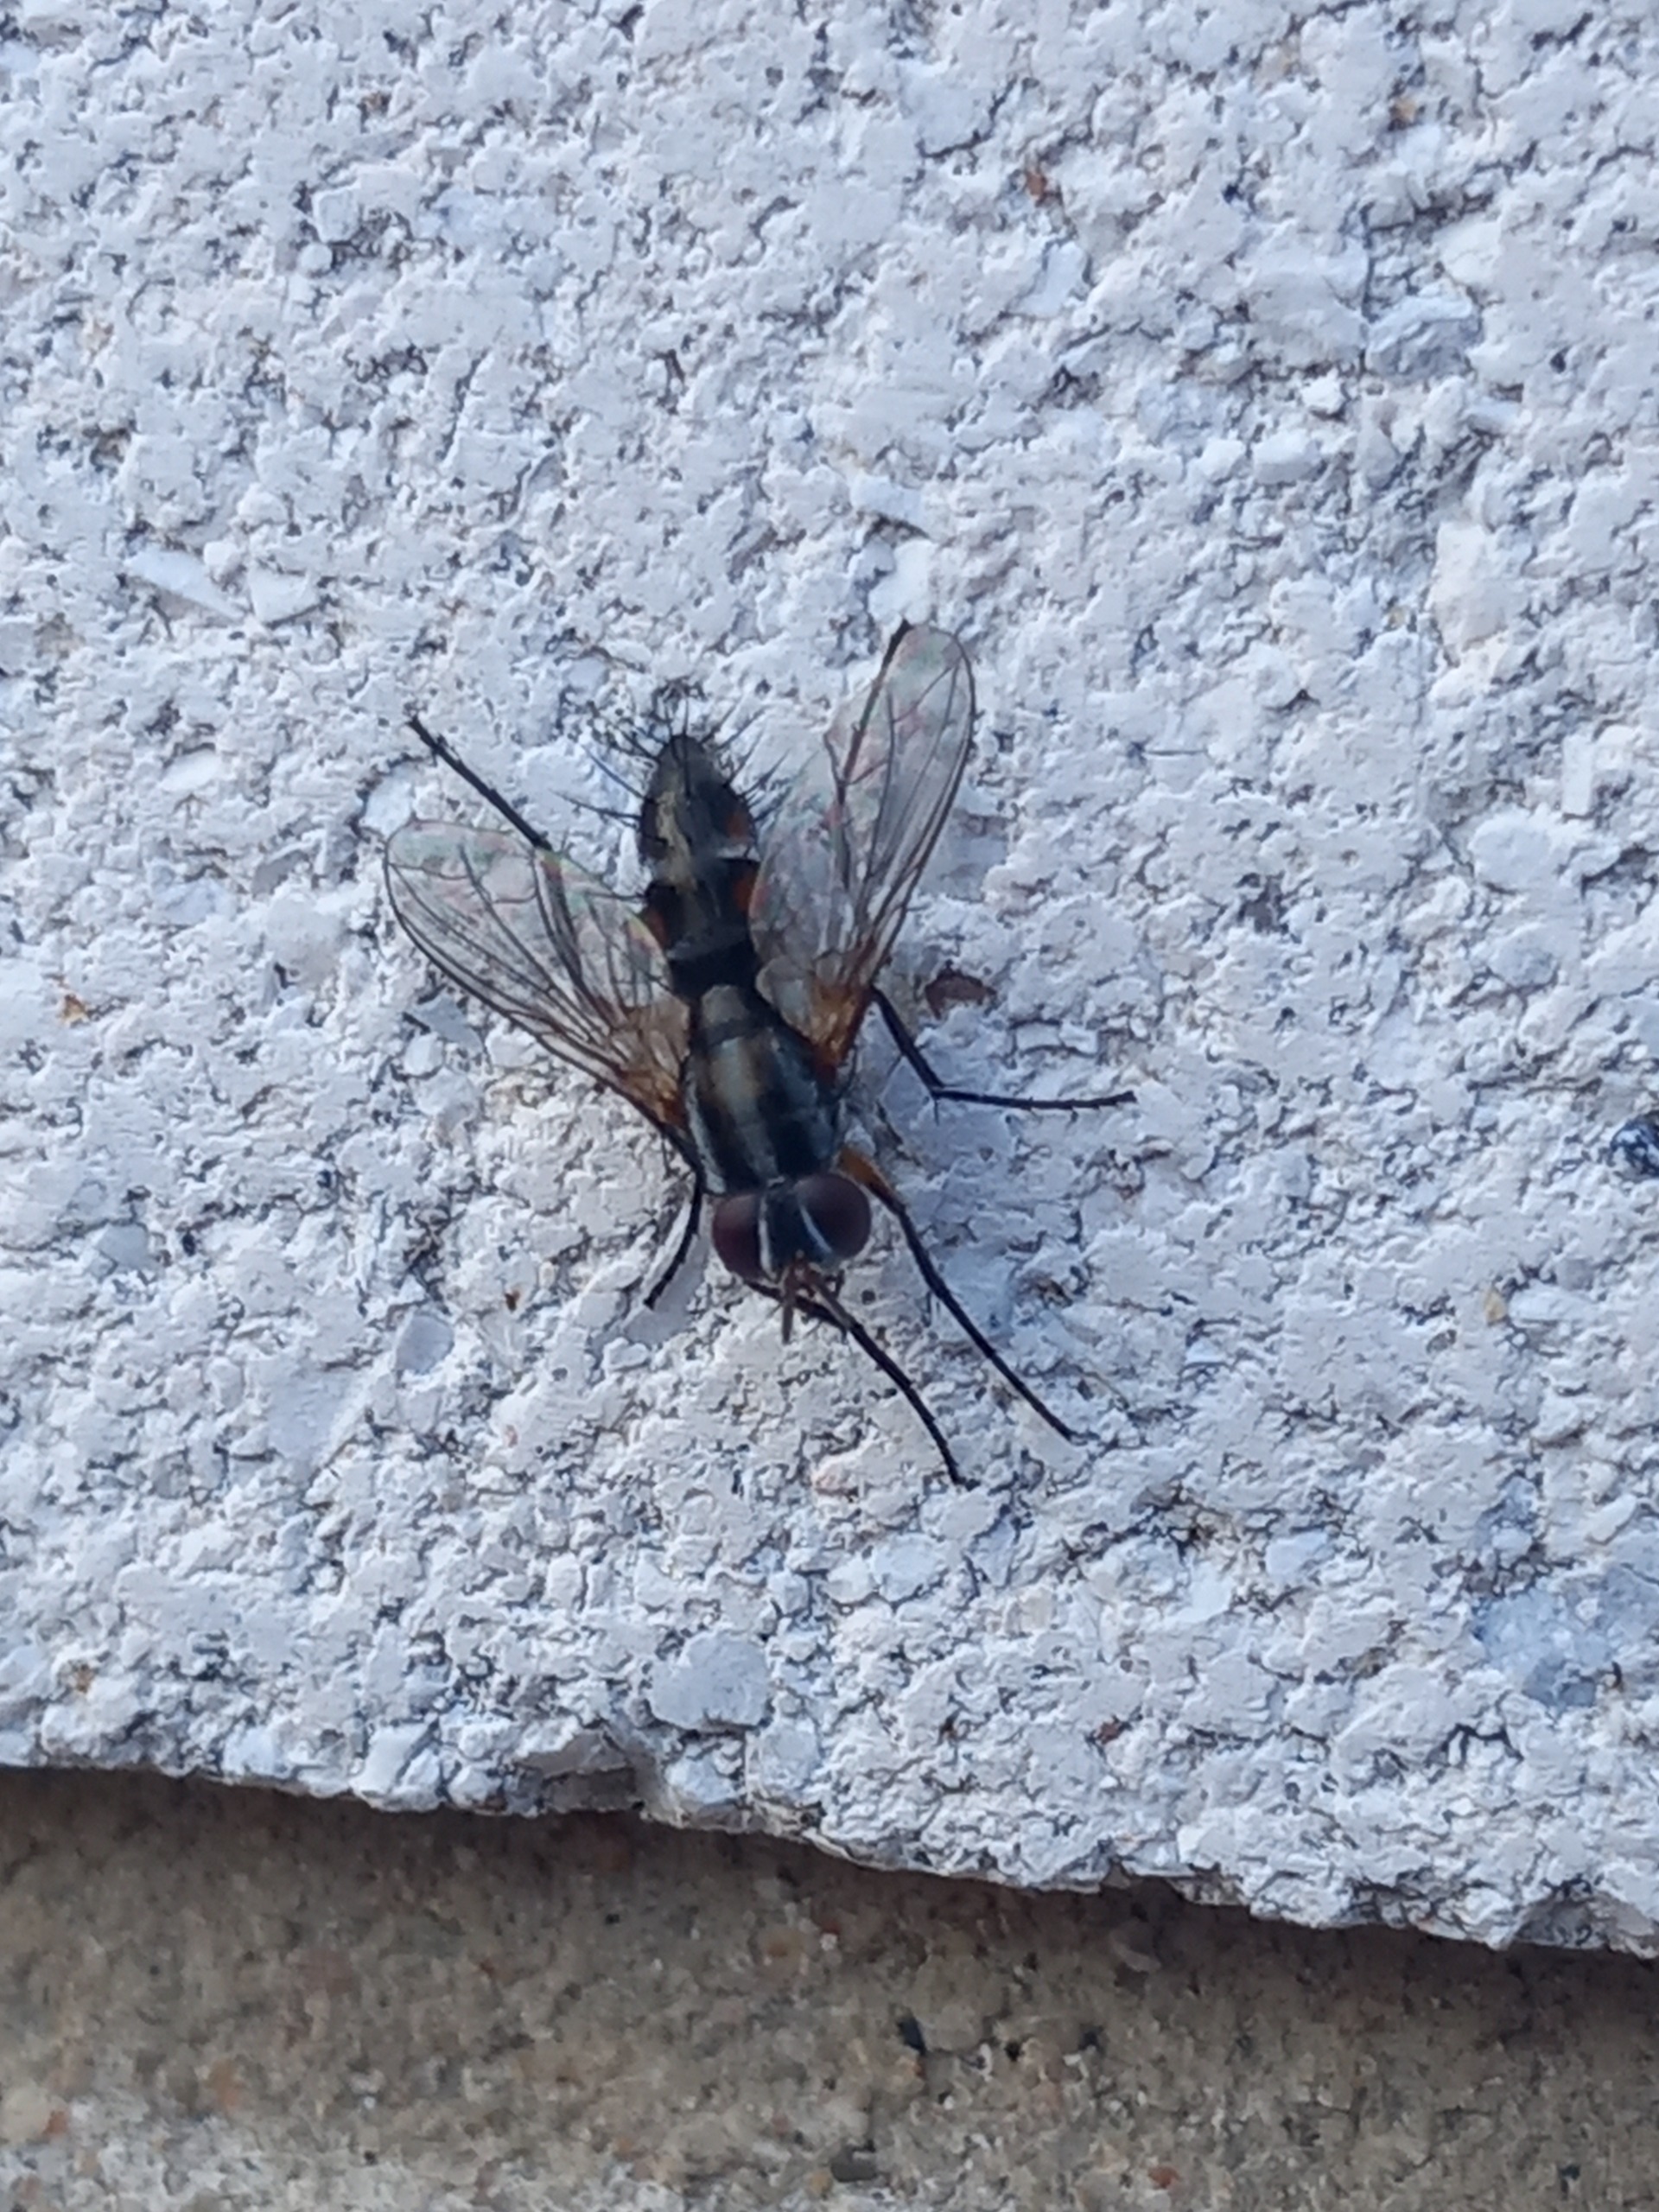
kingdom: Animalia
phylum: Arthropoda
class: Insecta
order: Diptera
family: Tachinidae
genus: Mintho
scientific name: Mintho rufiventris
